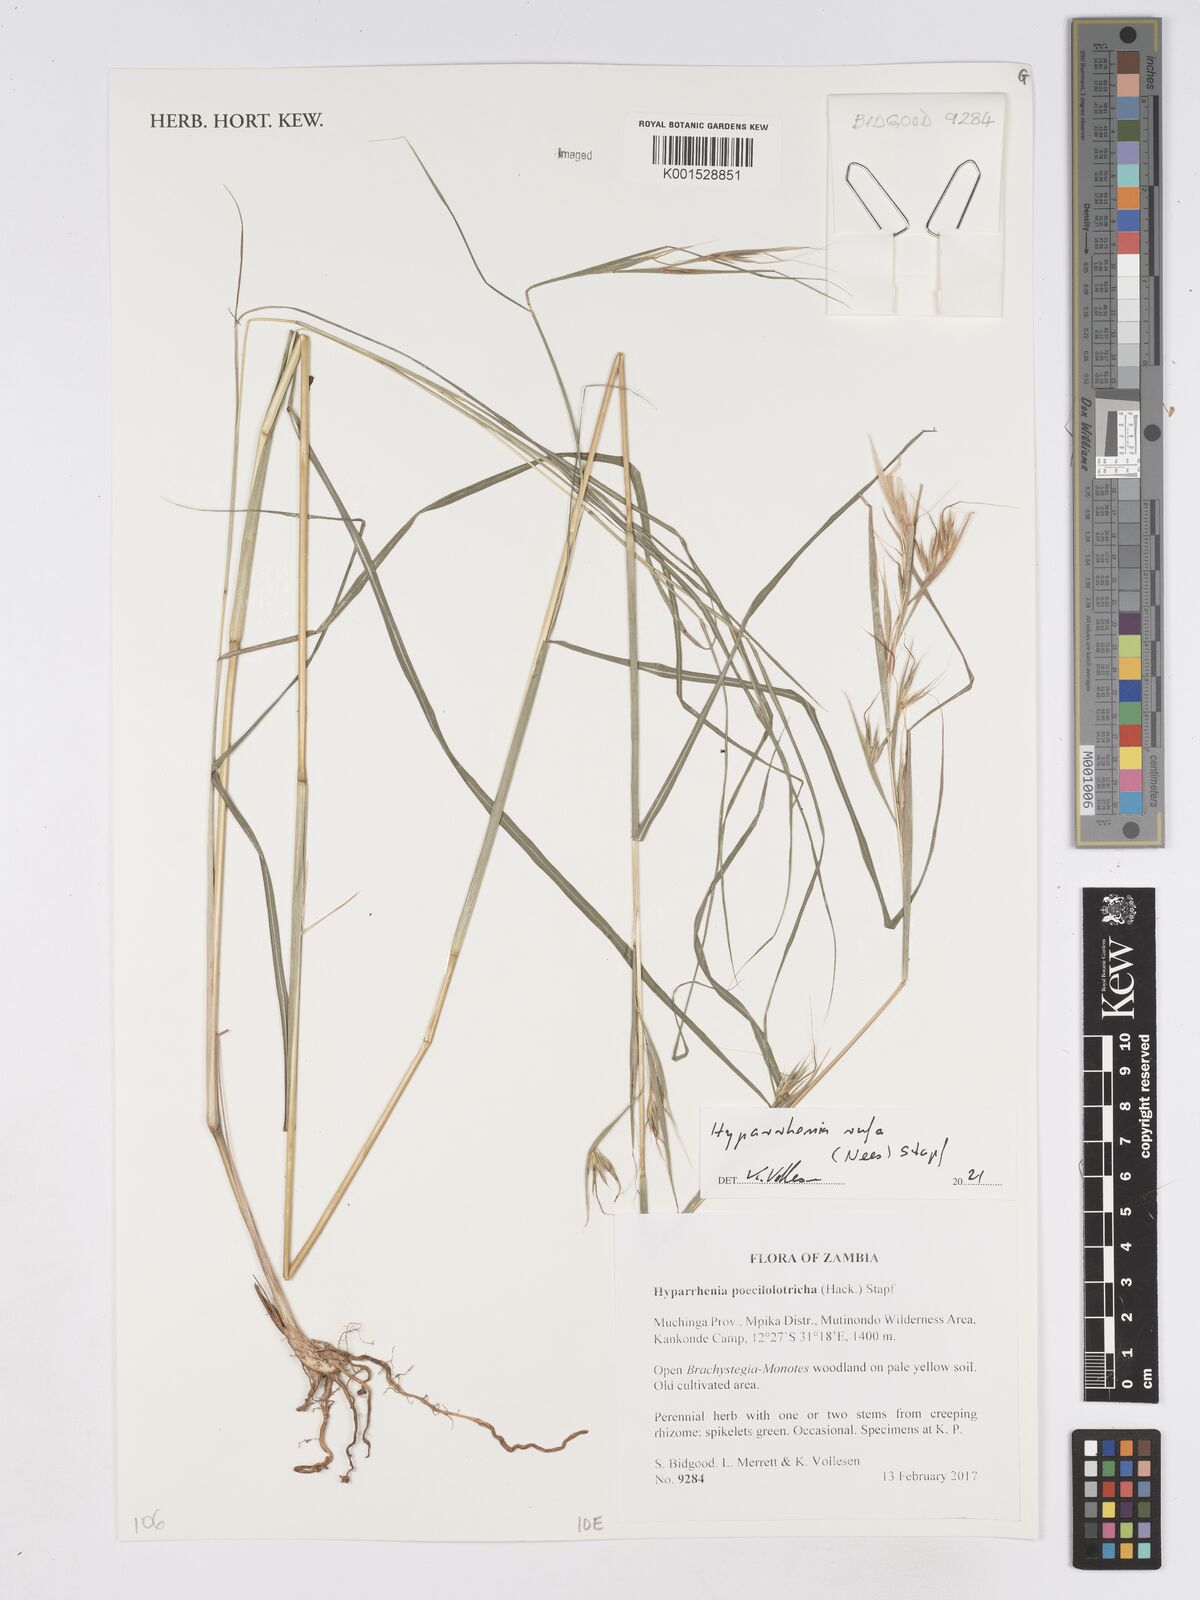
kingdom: Plantae
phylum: Tracheophyta
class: Liliopsida
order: Poales
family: Poaceae
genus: Hyparrhenia
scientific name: Hyparrhenia poecilotricha
